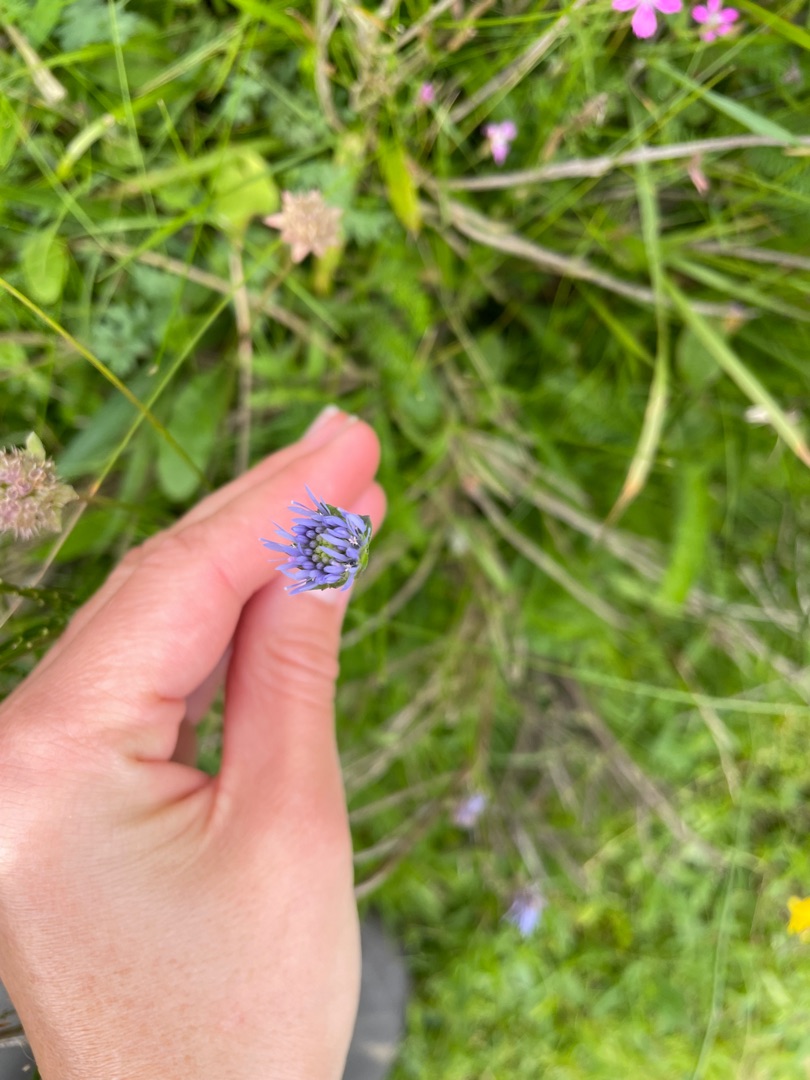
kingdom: Plantae
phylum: Tracheophyta
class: Magnoliopsida
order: Asterales
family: Campanulaceae
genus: Jasione
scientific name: Jasione montana
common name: Blåmunke
